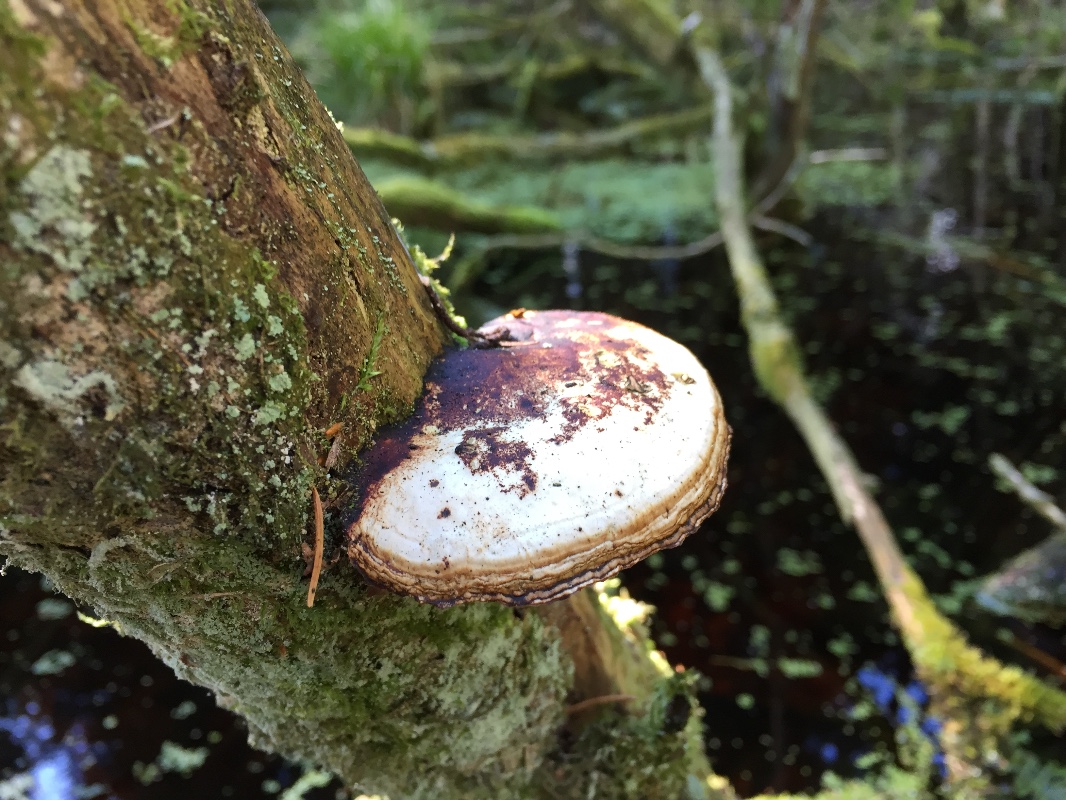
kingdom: Fungi
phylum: Basidiomycota
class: Agaricomycetes
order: Polyporales
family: Polyporaceae
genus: Daedaleopsis
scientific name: Daedaleopsis confragosa
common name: rødmende læderporesvamp
